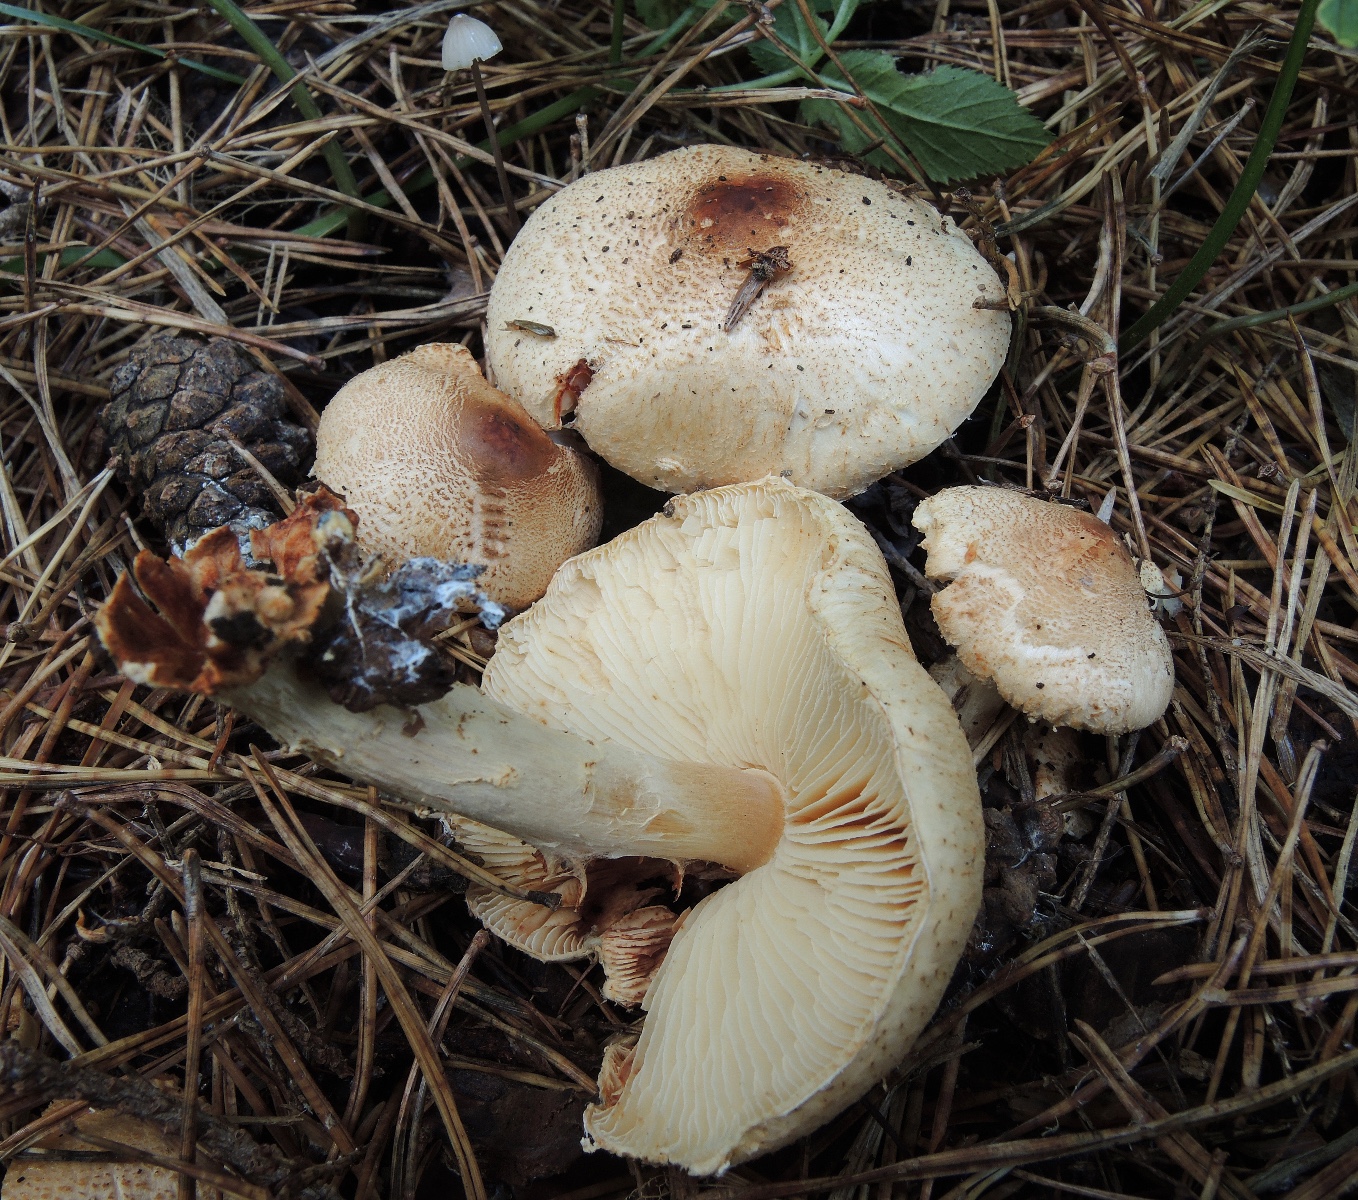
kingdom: Fungi
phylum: Basidiomycota
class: Agaricomycetes
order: Agaricales
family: Agaricaceae
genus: Lepiota
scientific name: Lepiota ochraceofulva
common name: sødtduftende parasolhat
